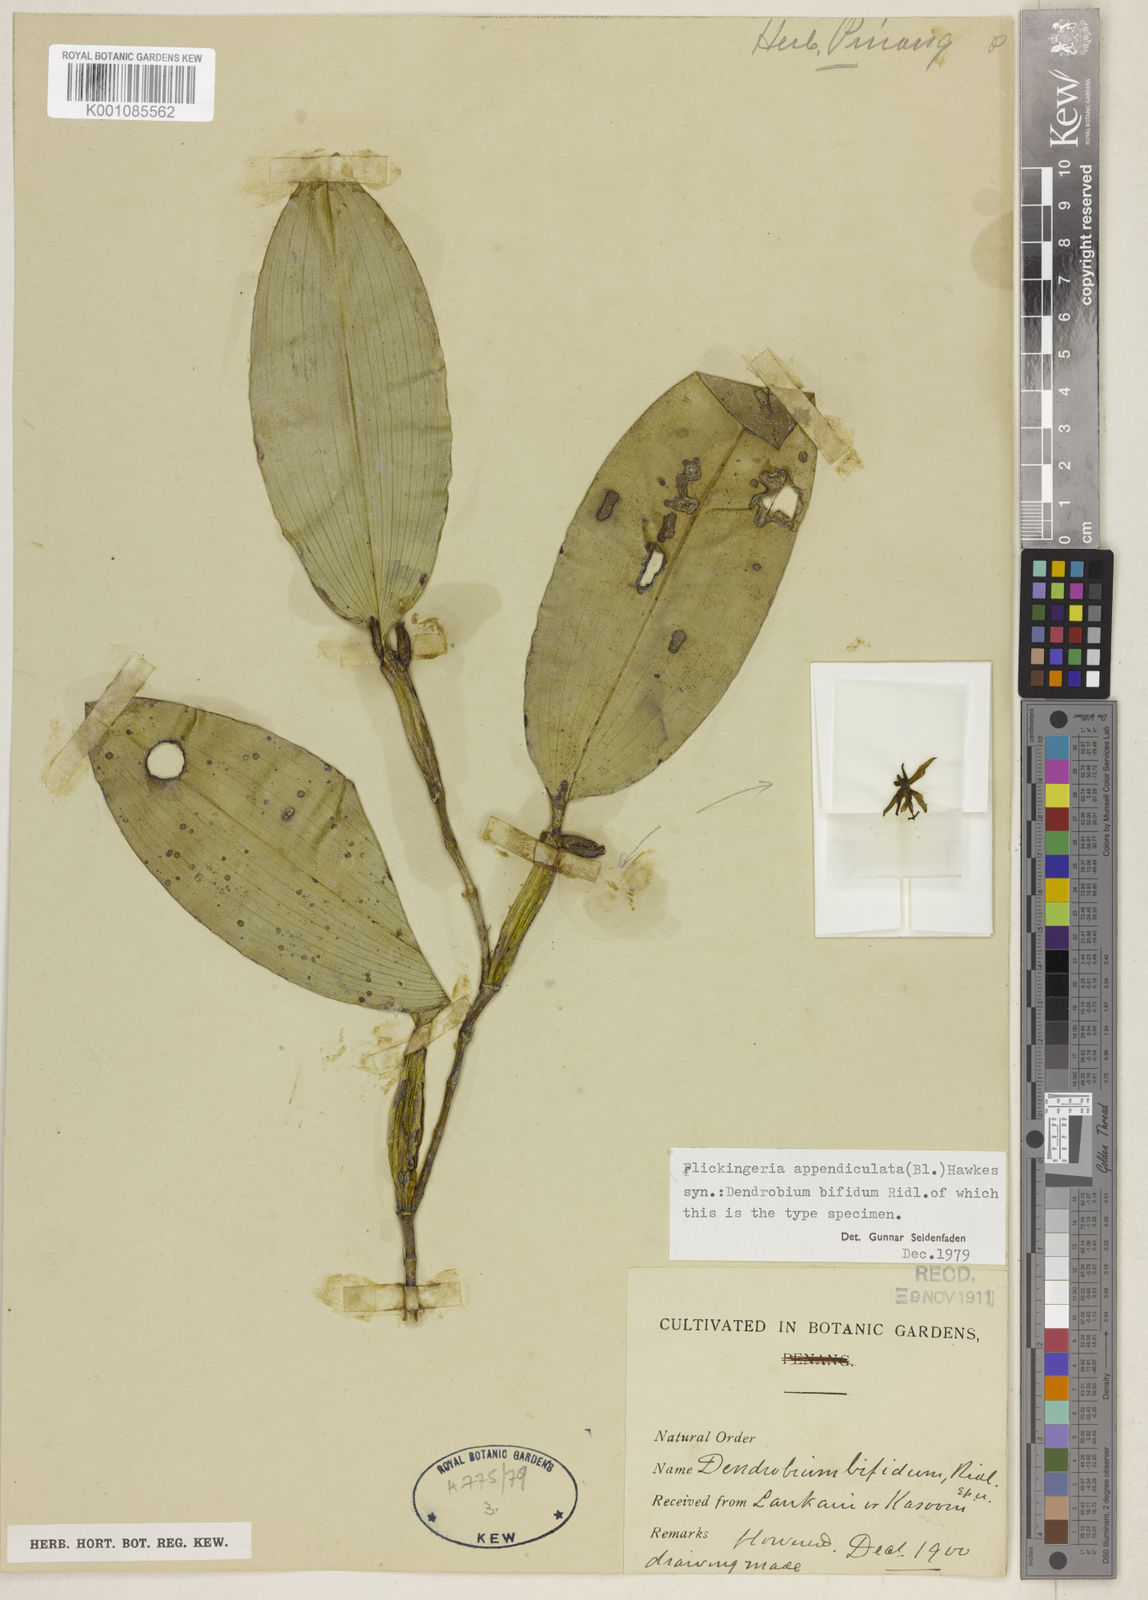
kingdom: Plantae
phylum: Tracheophyta
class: Liliopsida
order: Asparagales
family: Orchidaceae
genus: Dendrobium
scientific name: Dendrobium appendiculatum
